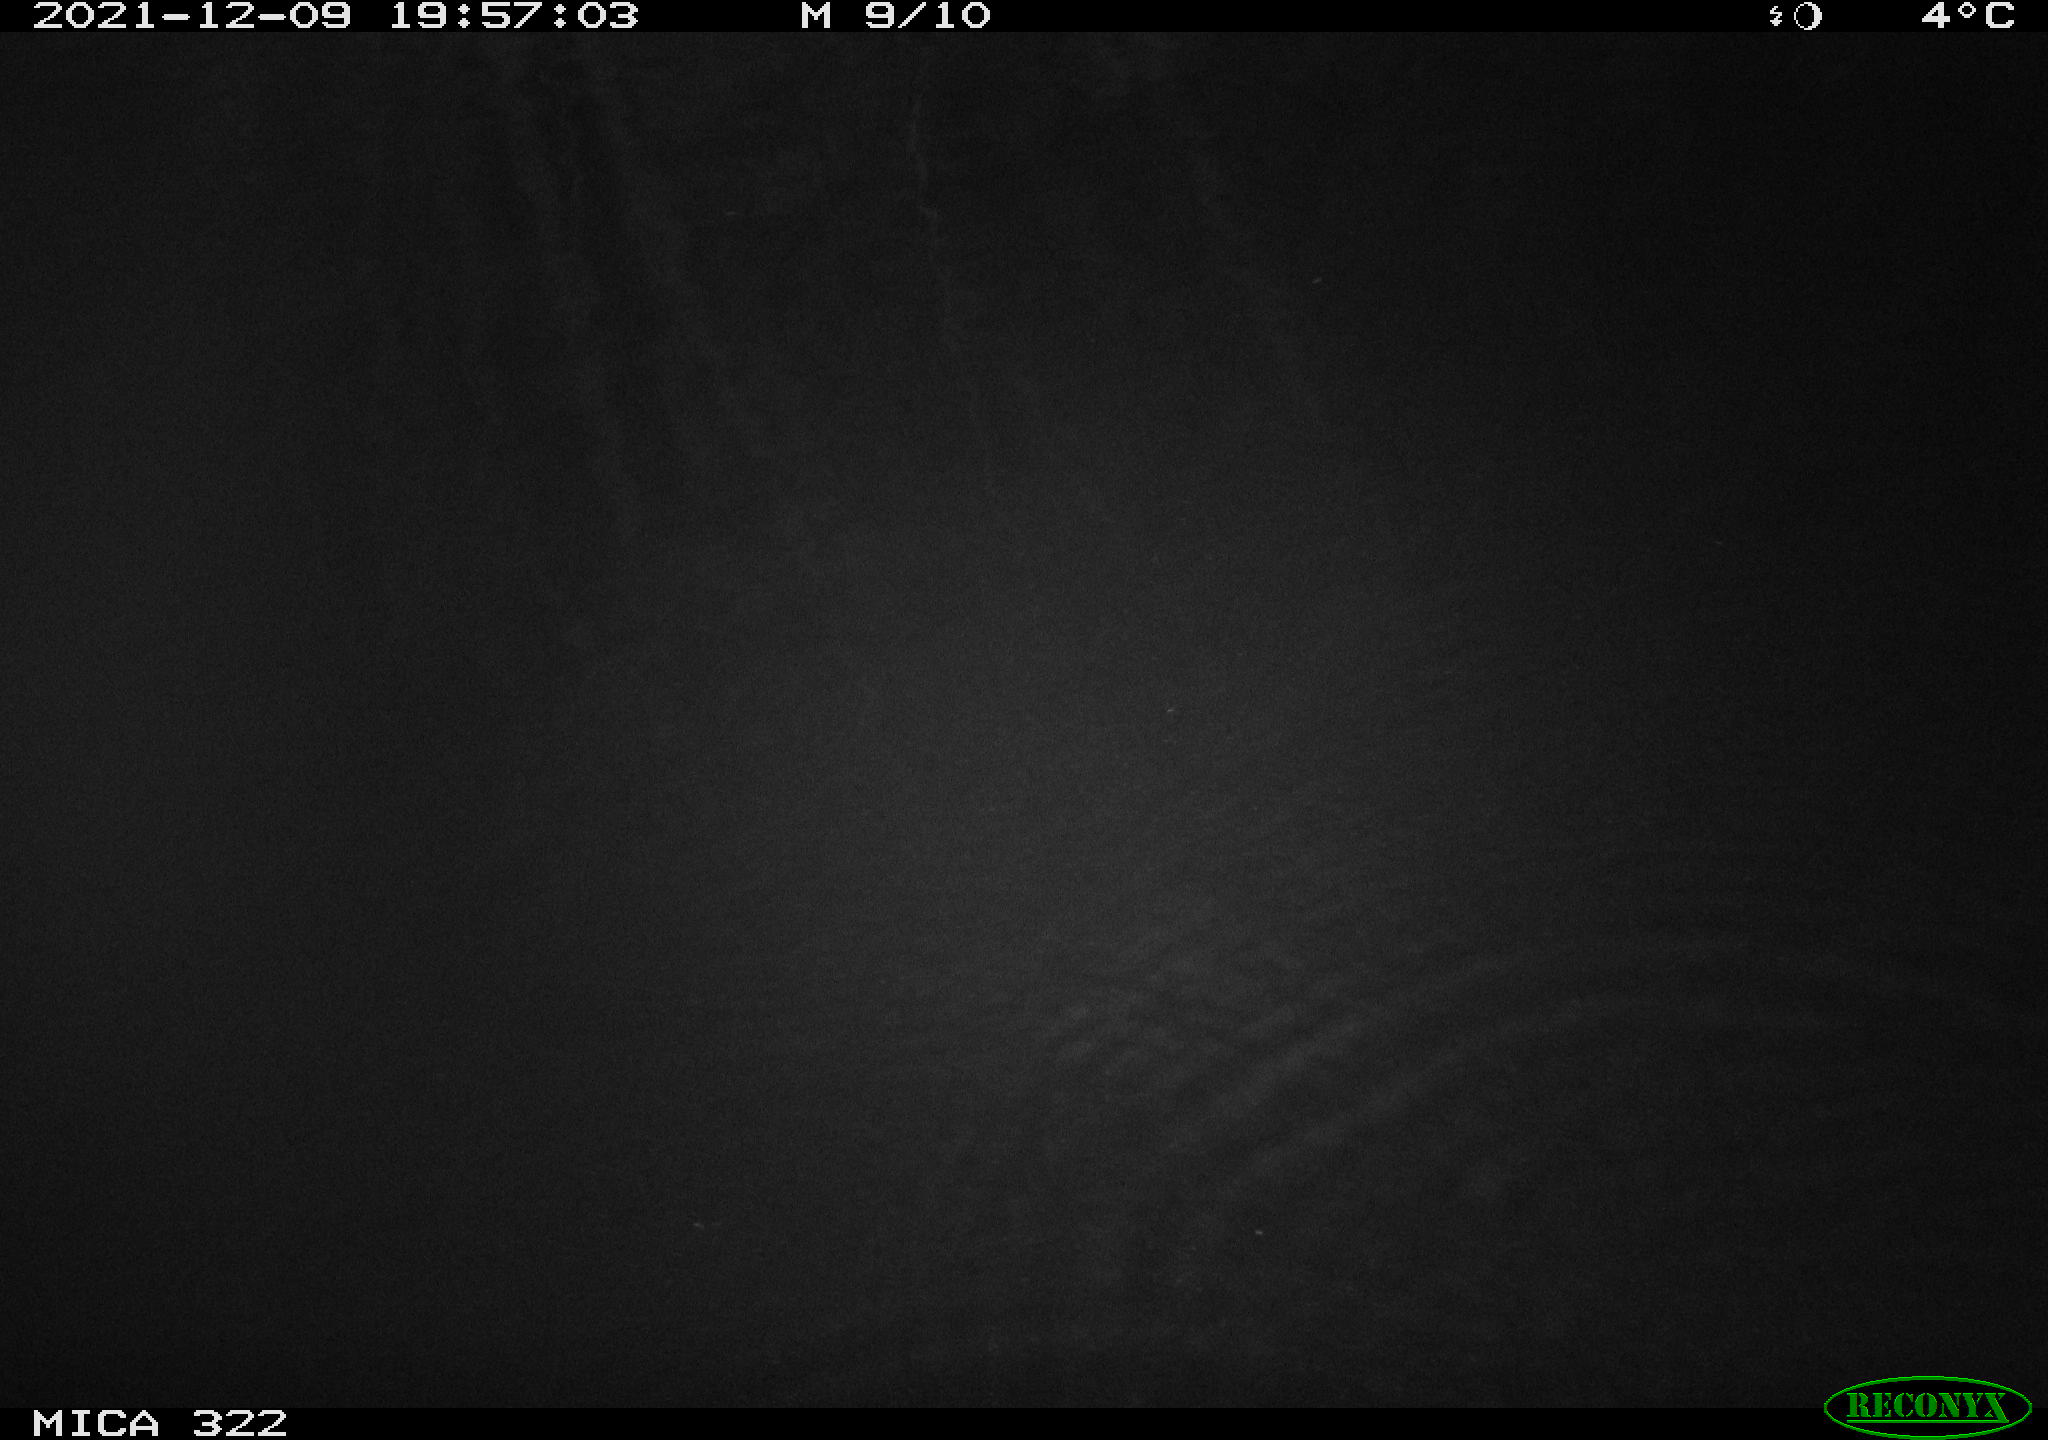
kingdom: Animalia
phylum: Chordata
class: Mammalia
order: Rodentia
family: Muridae
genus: Rattus
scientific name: Rattus norvegicus
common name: Brown rat
